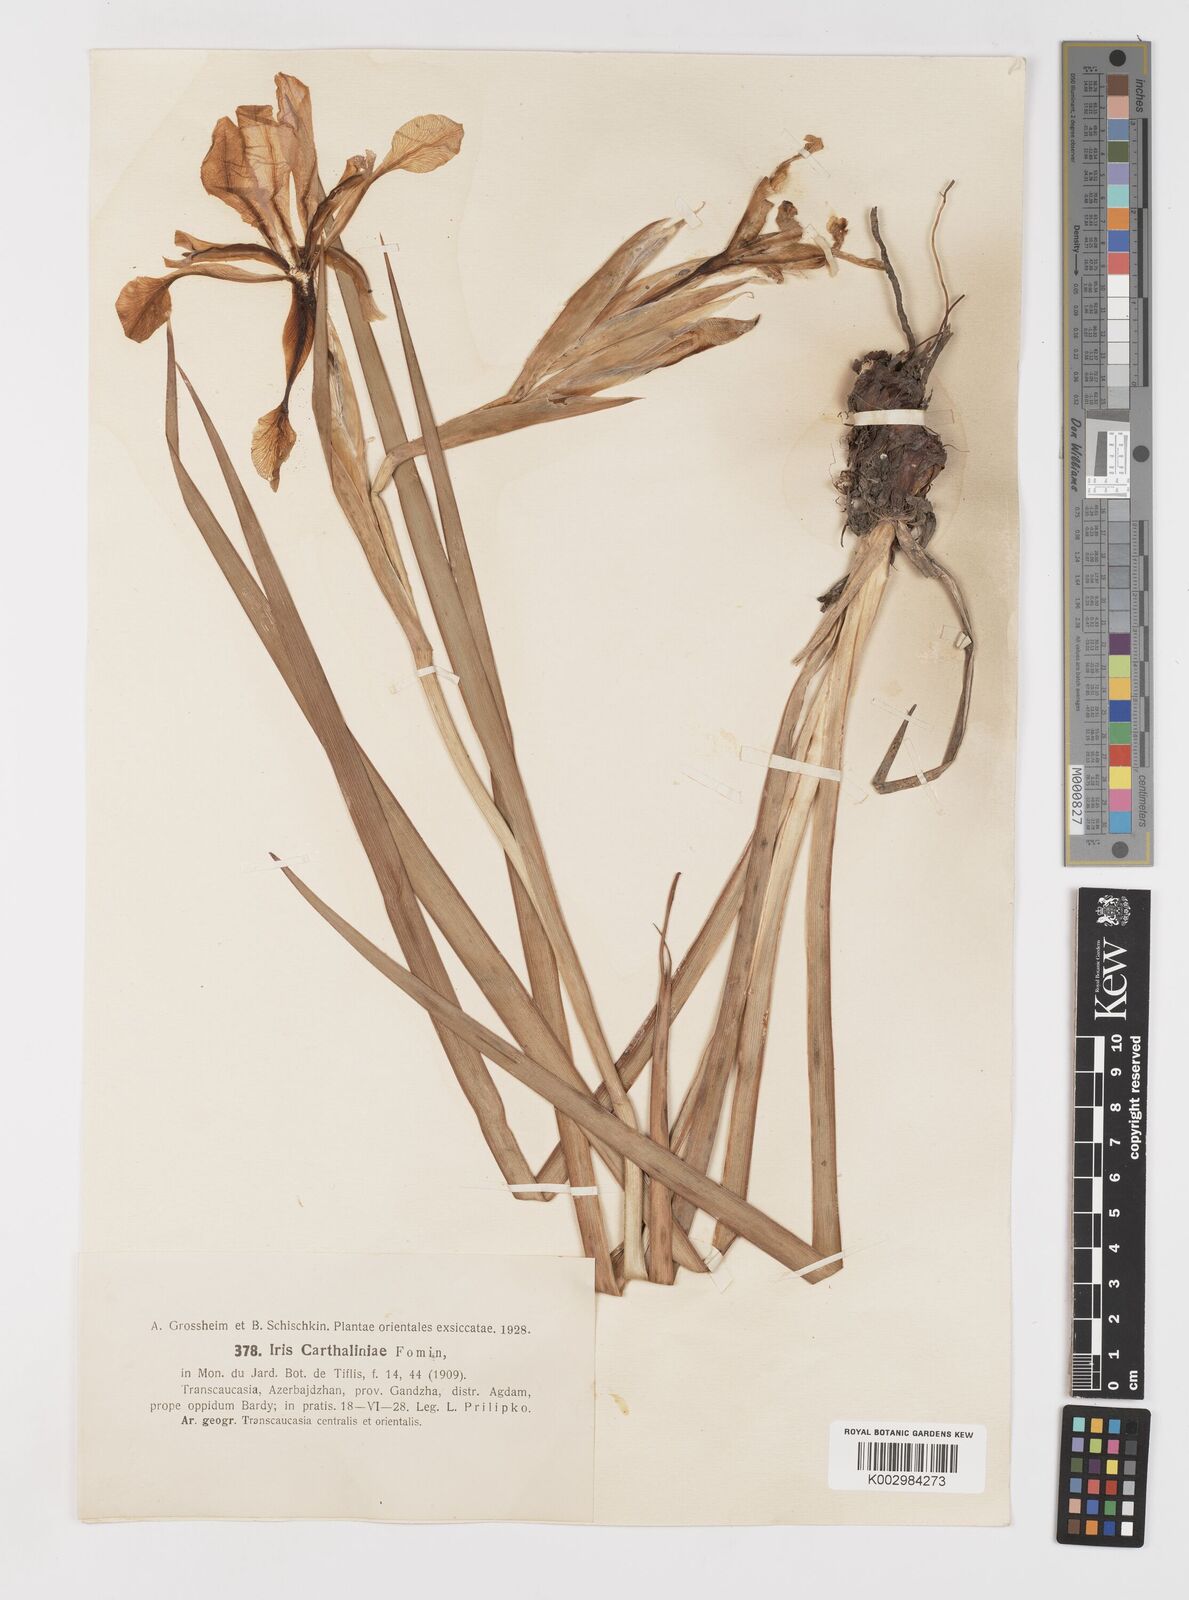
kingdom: Plantae
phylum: Tracheophyta
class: Liliopsida
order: Asparagales
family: Iridaceae
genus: Iris
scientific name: Iris spuria
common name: Blue iris
